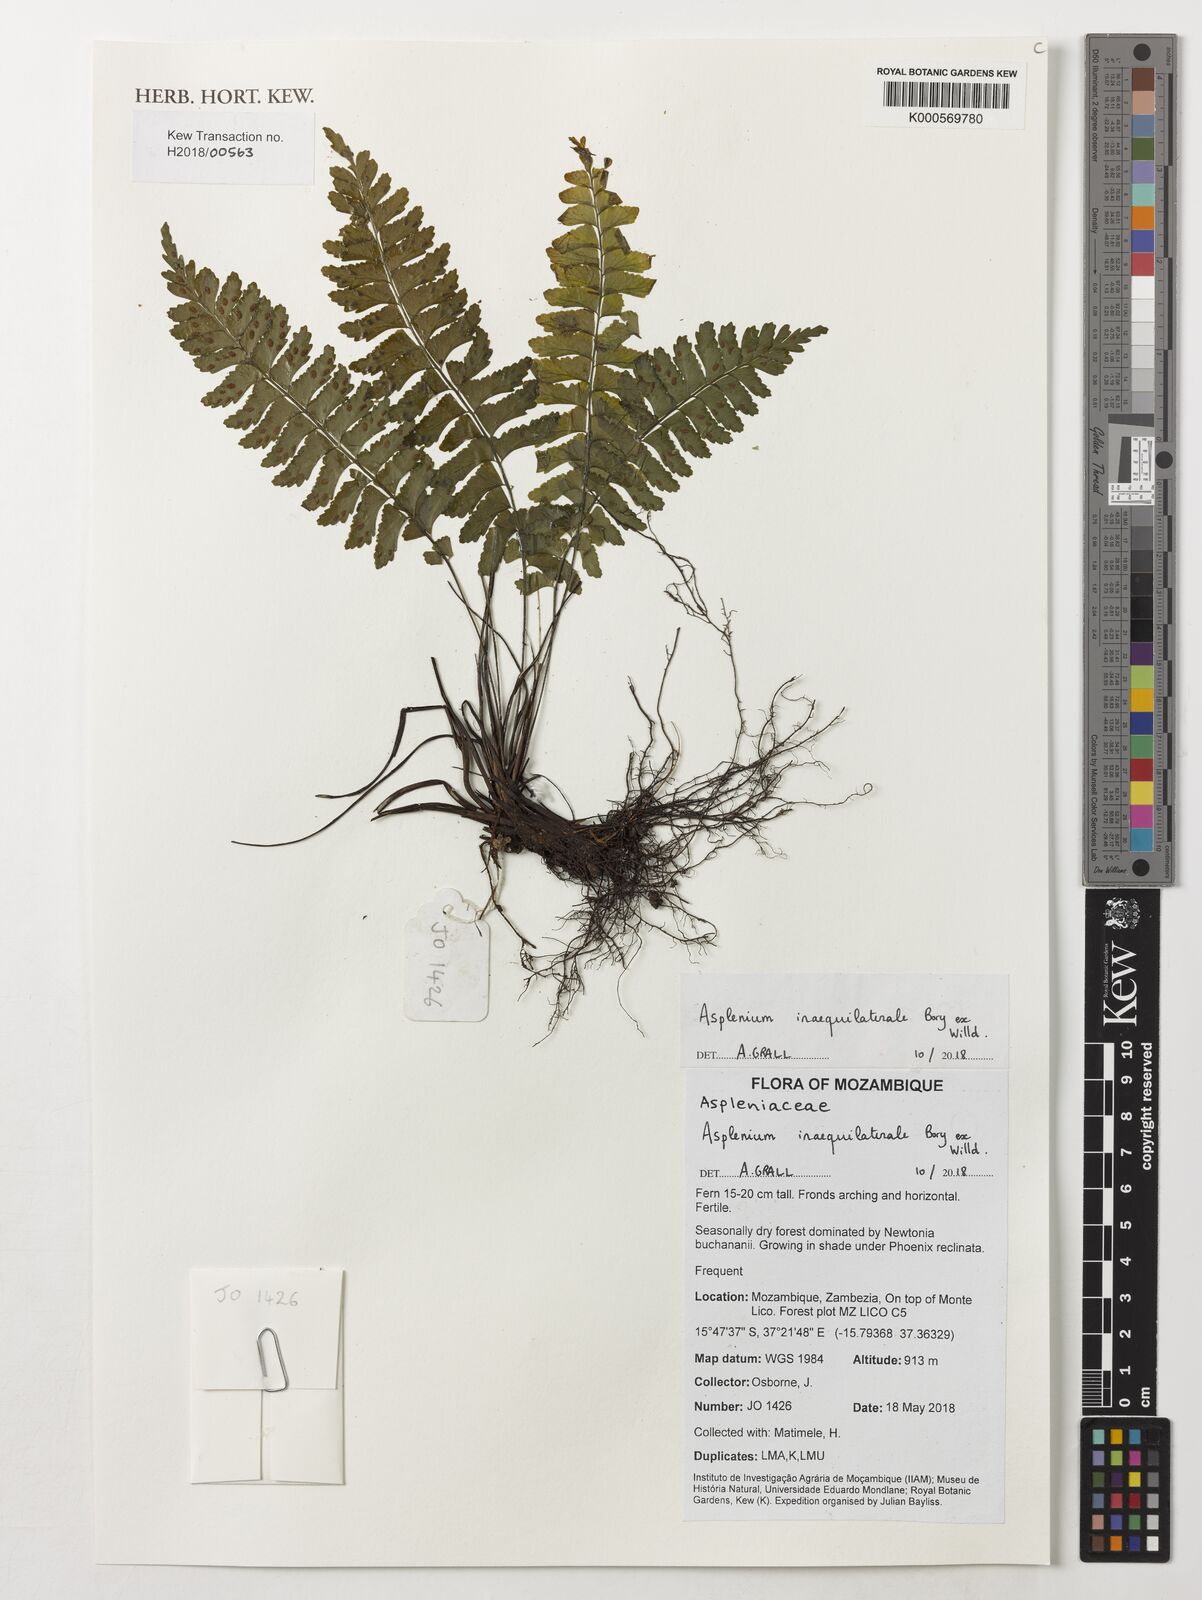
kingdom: Plantae
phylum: Tracheophyta
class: Polypodiopsida
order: Polypodiales
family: Aspleniaceae
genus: Asplenium
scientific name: Asplenium inaequilaterale
